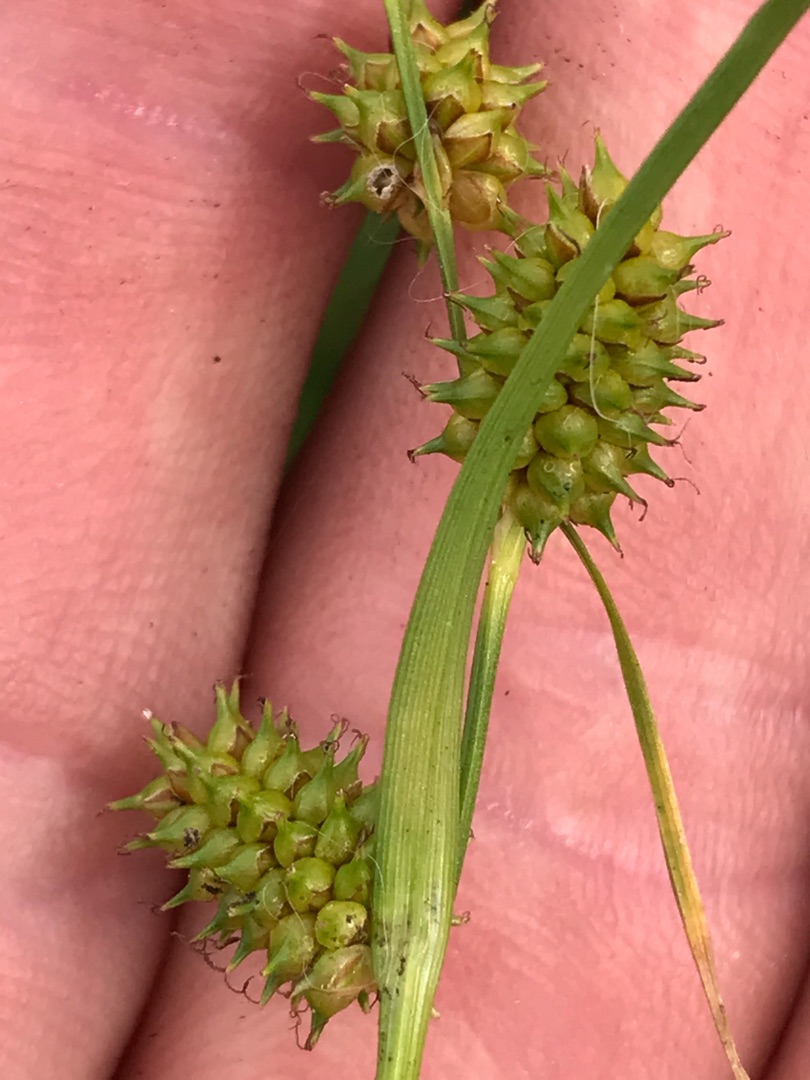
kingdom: Plantae
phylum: Tracheophyta
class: Liliopsida
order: Poales
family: Cyperaceae
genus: Carex
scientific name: Carex lepidocarpa
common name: Krognæb-star
